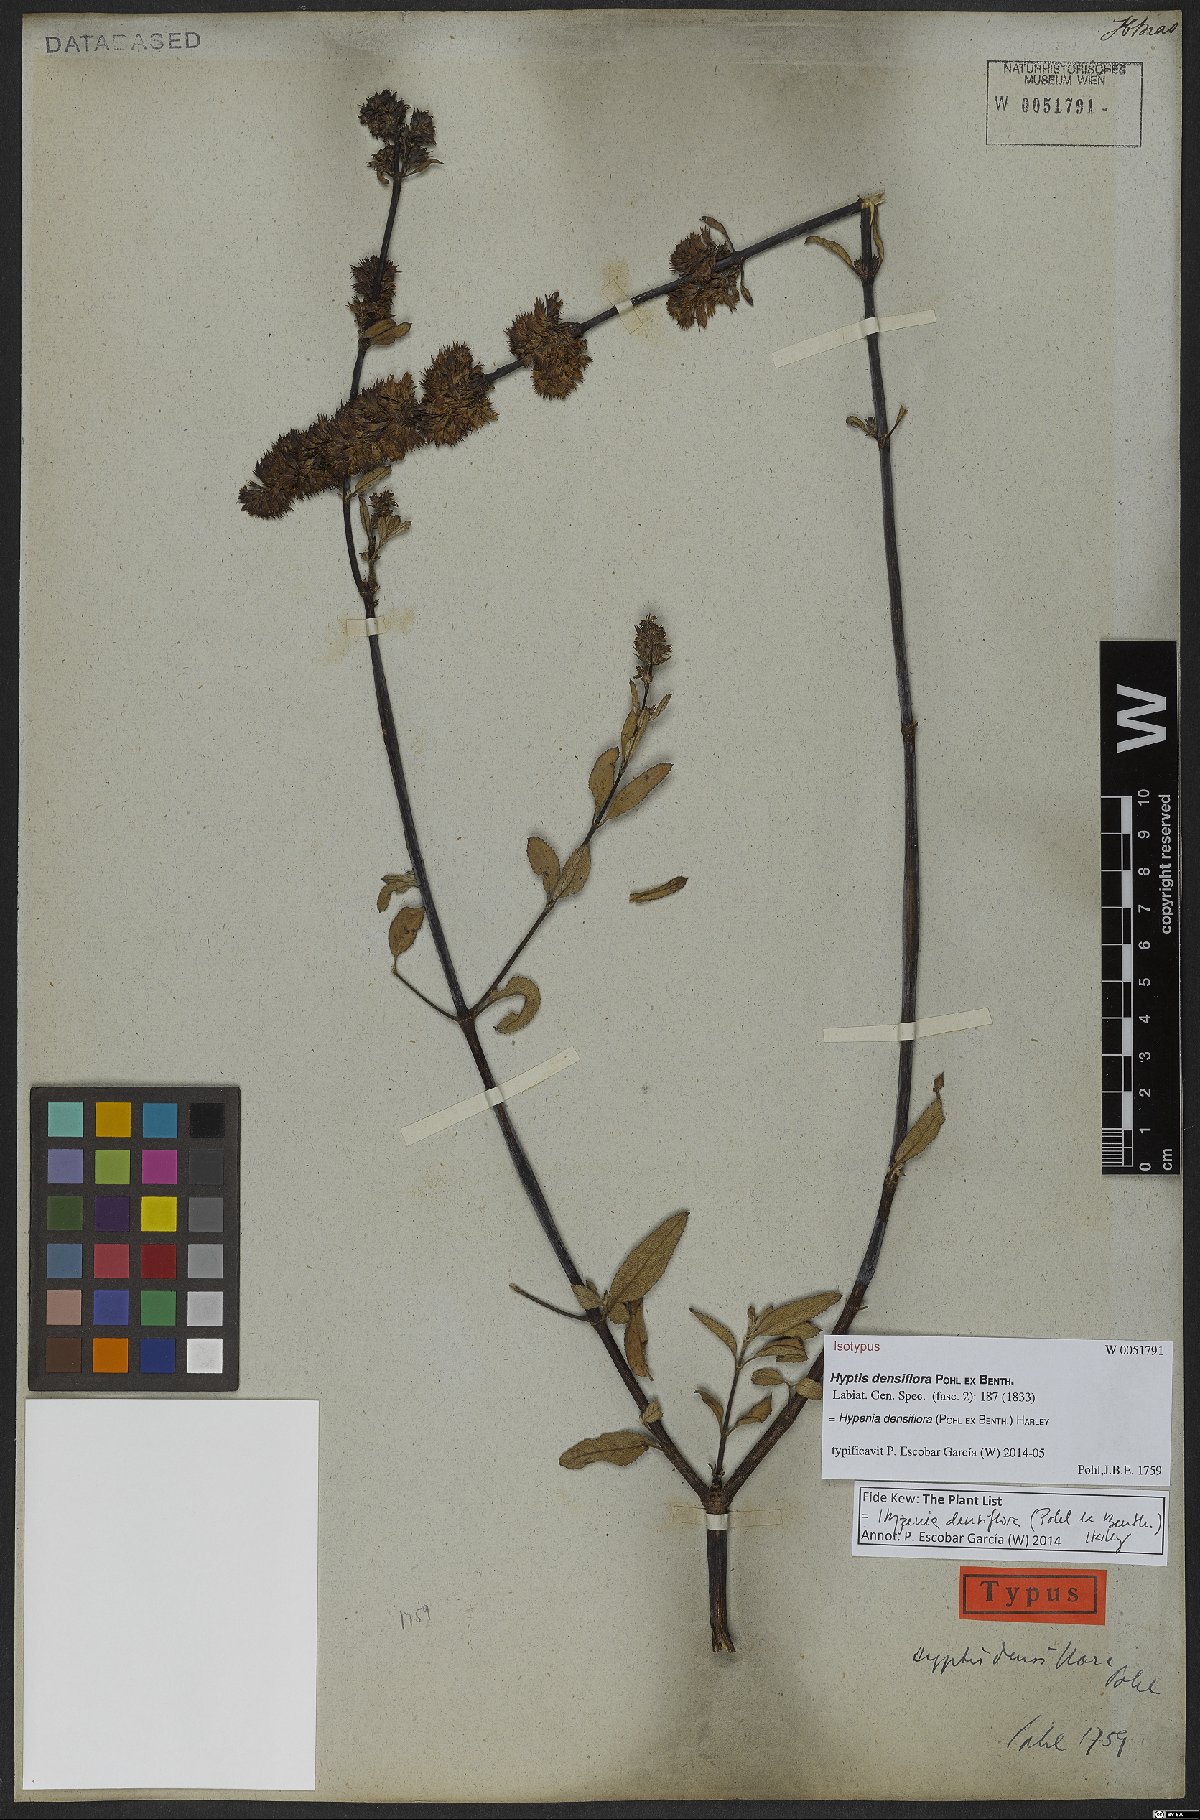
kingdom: Plantae
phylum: Tracheophyta
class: Magnoliopsida
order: Lamiales
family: Lamiaceae
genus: Hypenia
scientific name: Hypenia densiflora
